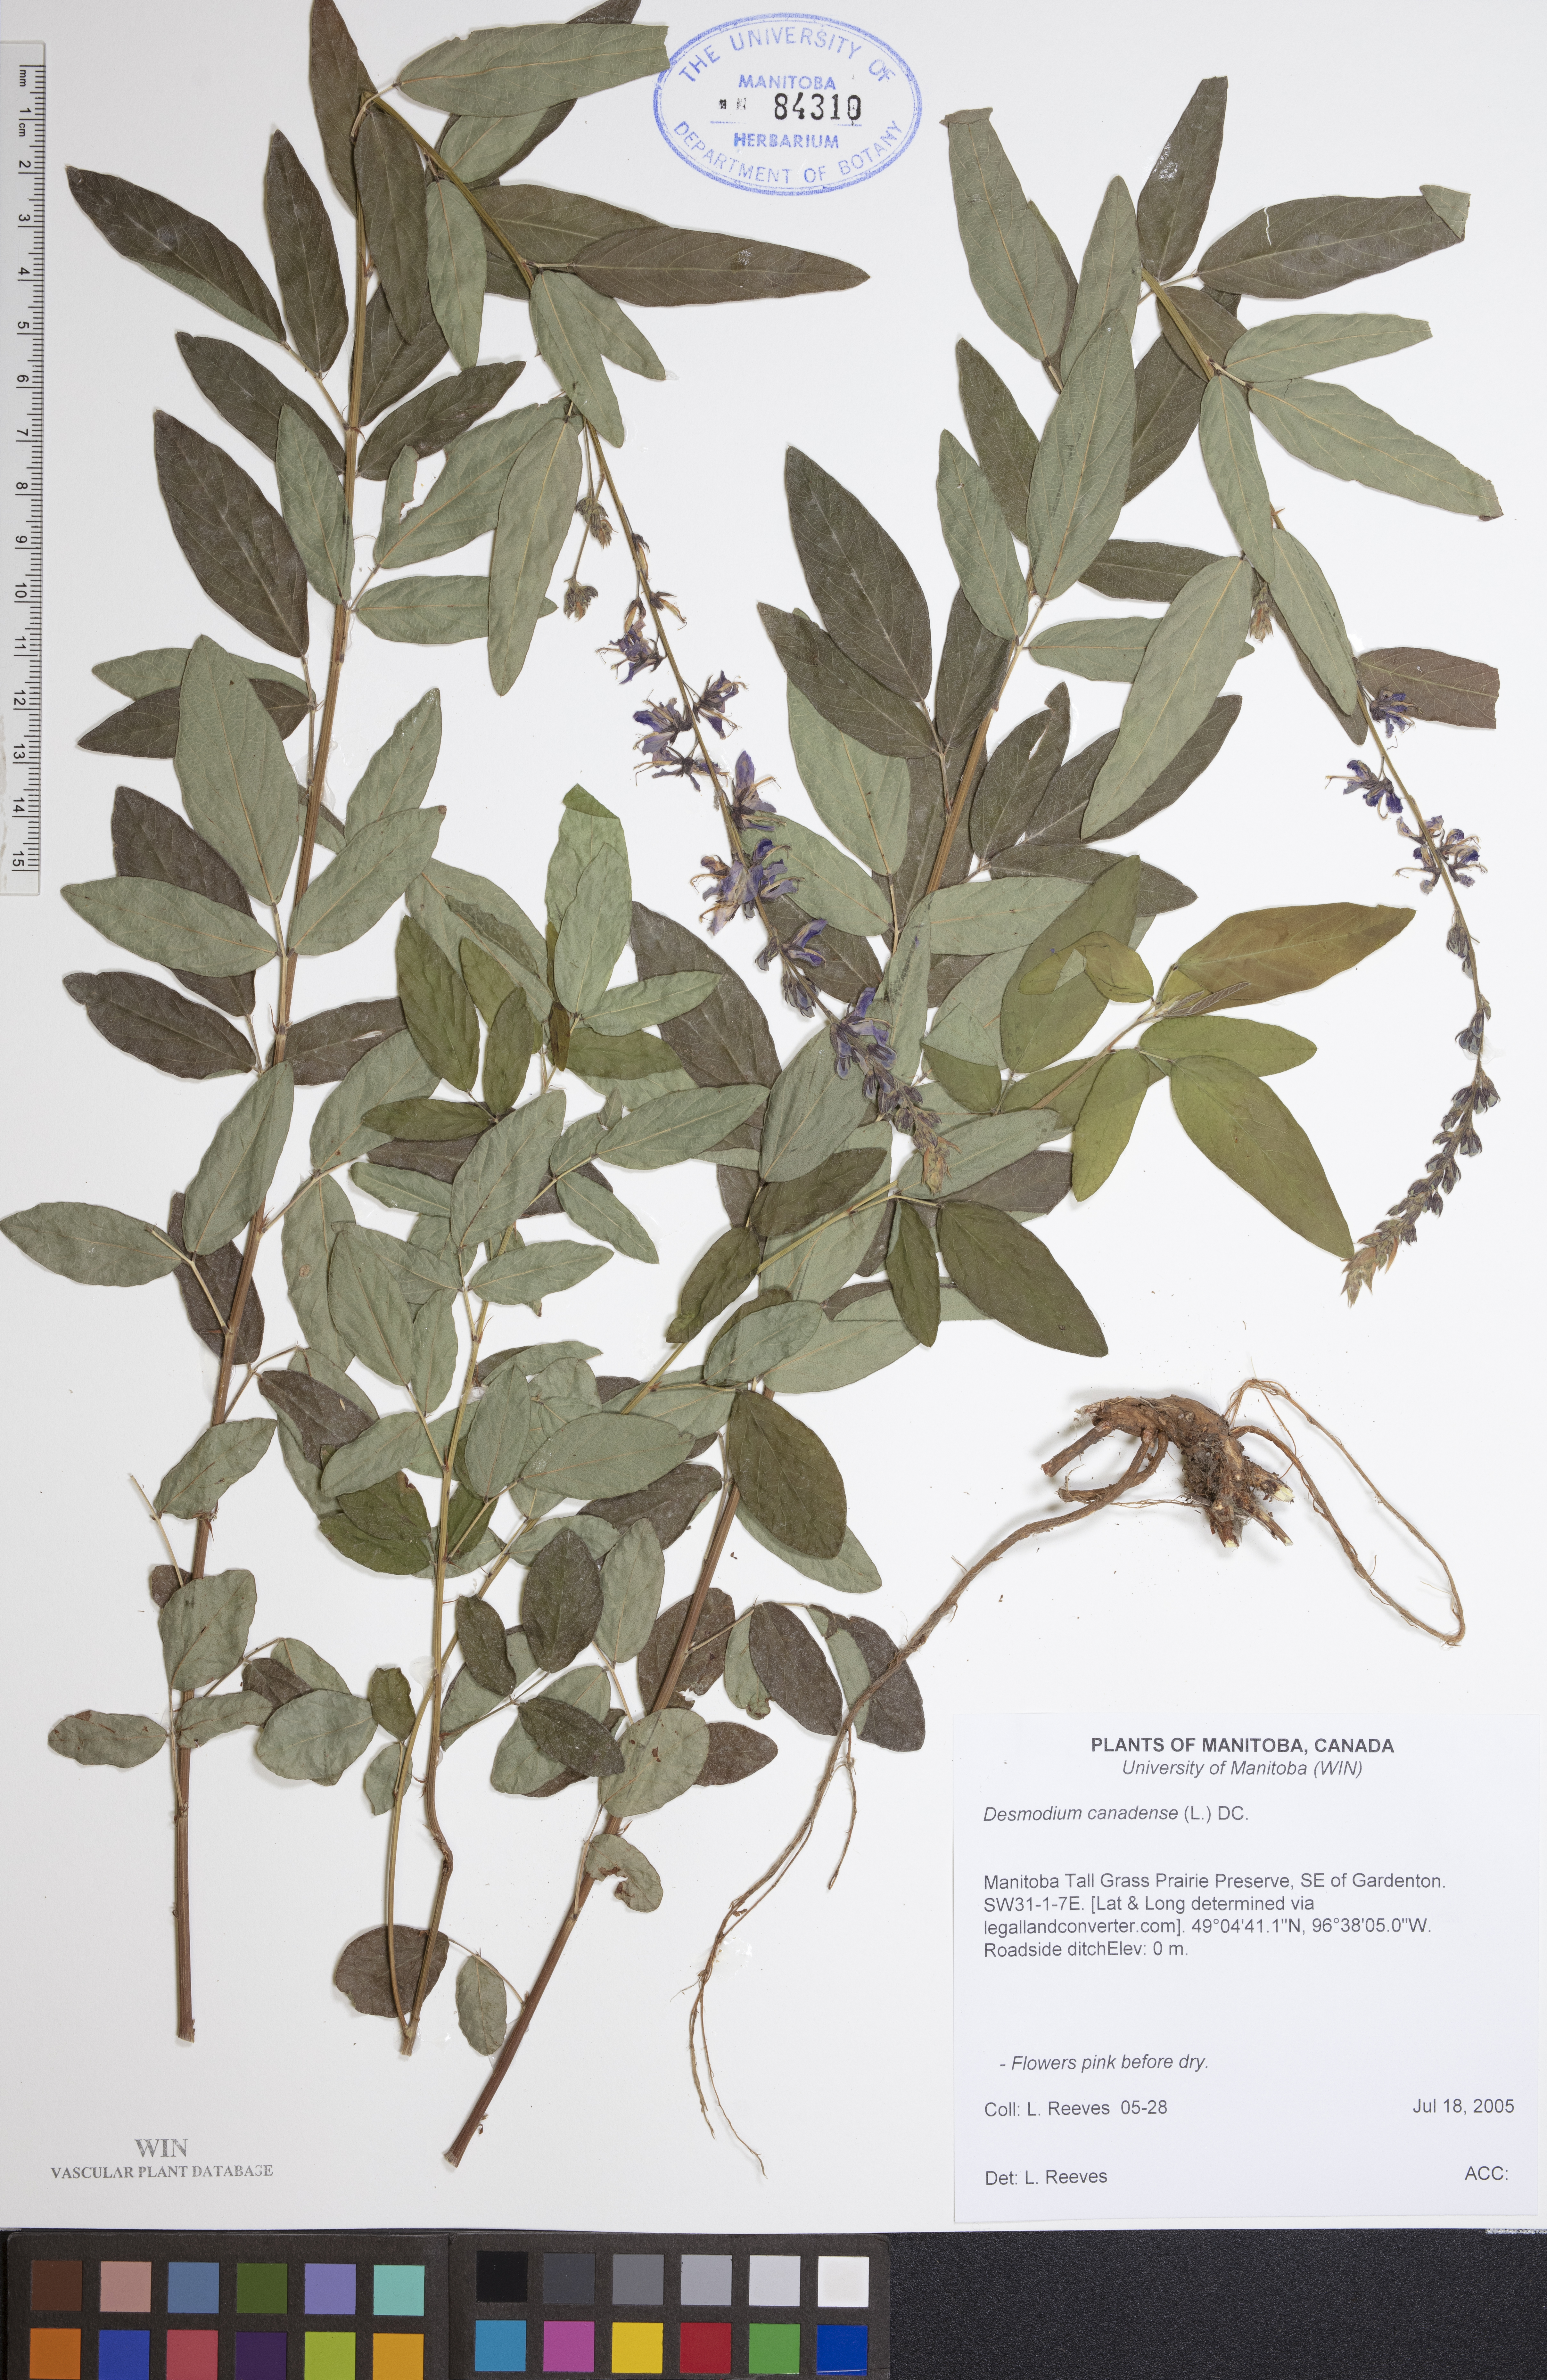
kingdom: Plantae
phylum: Tracheophyta
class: Magnoliopsida
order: Fabales
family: Fabaceae
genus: Desmodium
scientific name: Desmodium canadense
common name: Canada tick-trefoil
